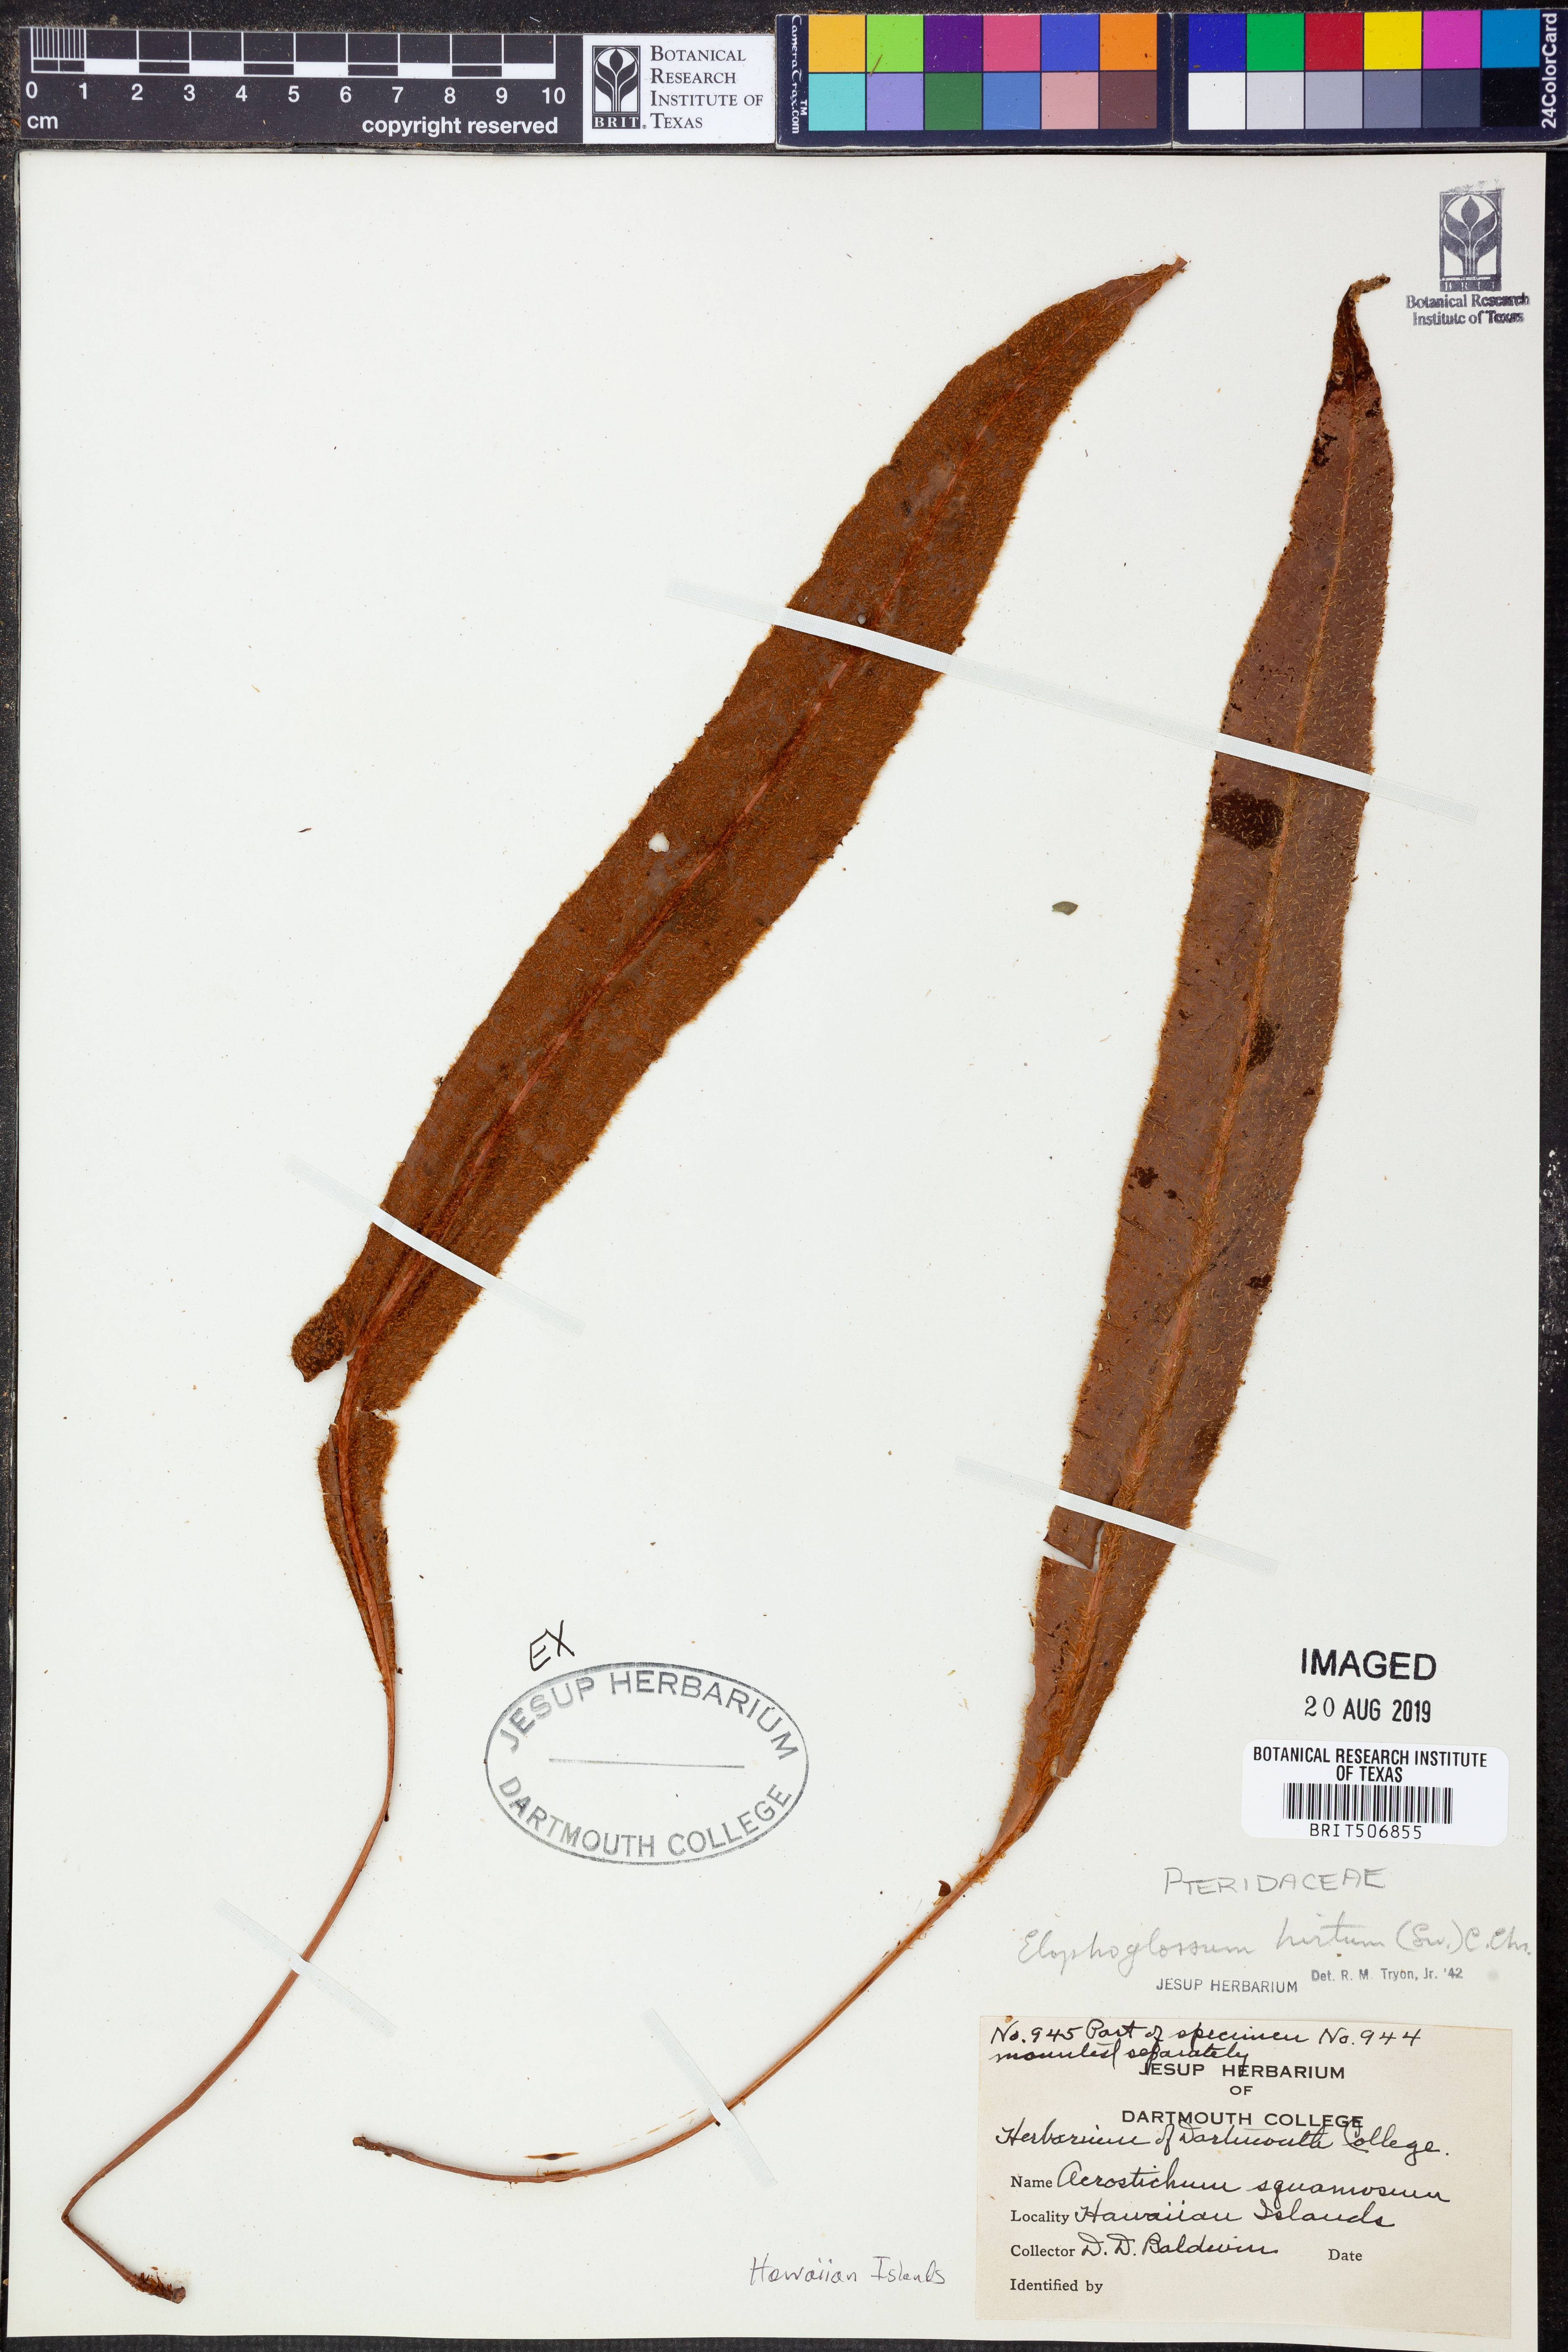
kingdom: Plantae
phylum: Tracheophyta
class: Polypodiopsida
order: Polypodiales
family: Dryopteridaceae
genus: Elaphoglossum
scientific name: Elaphoglossum hirtum
